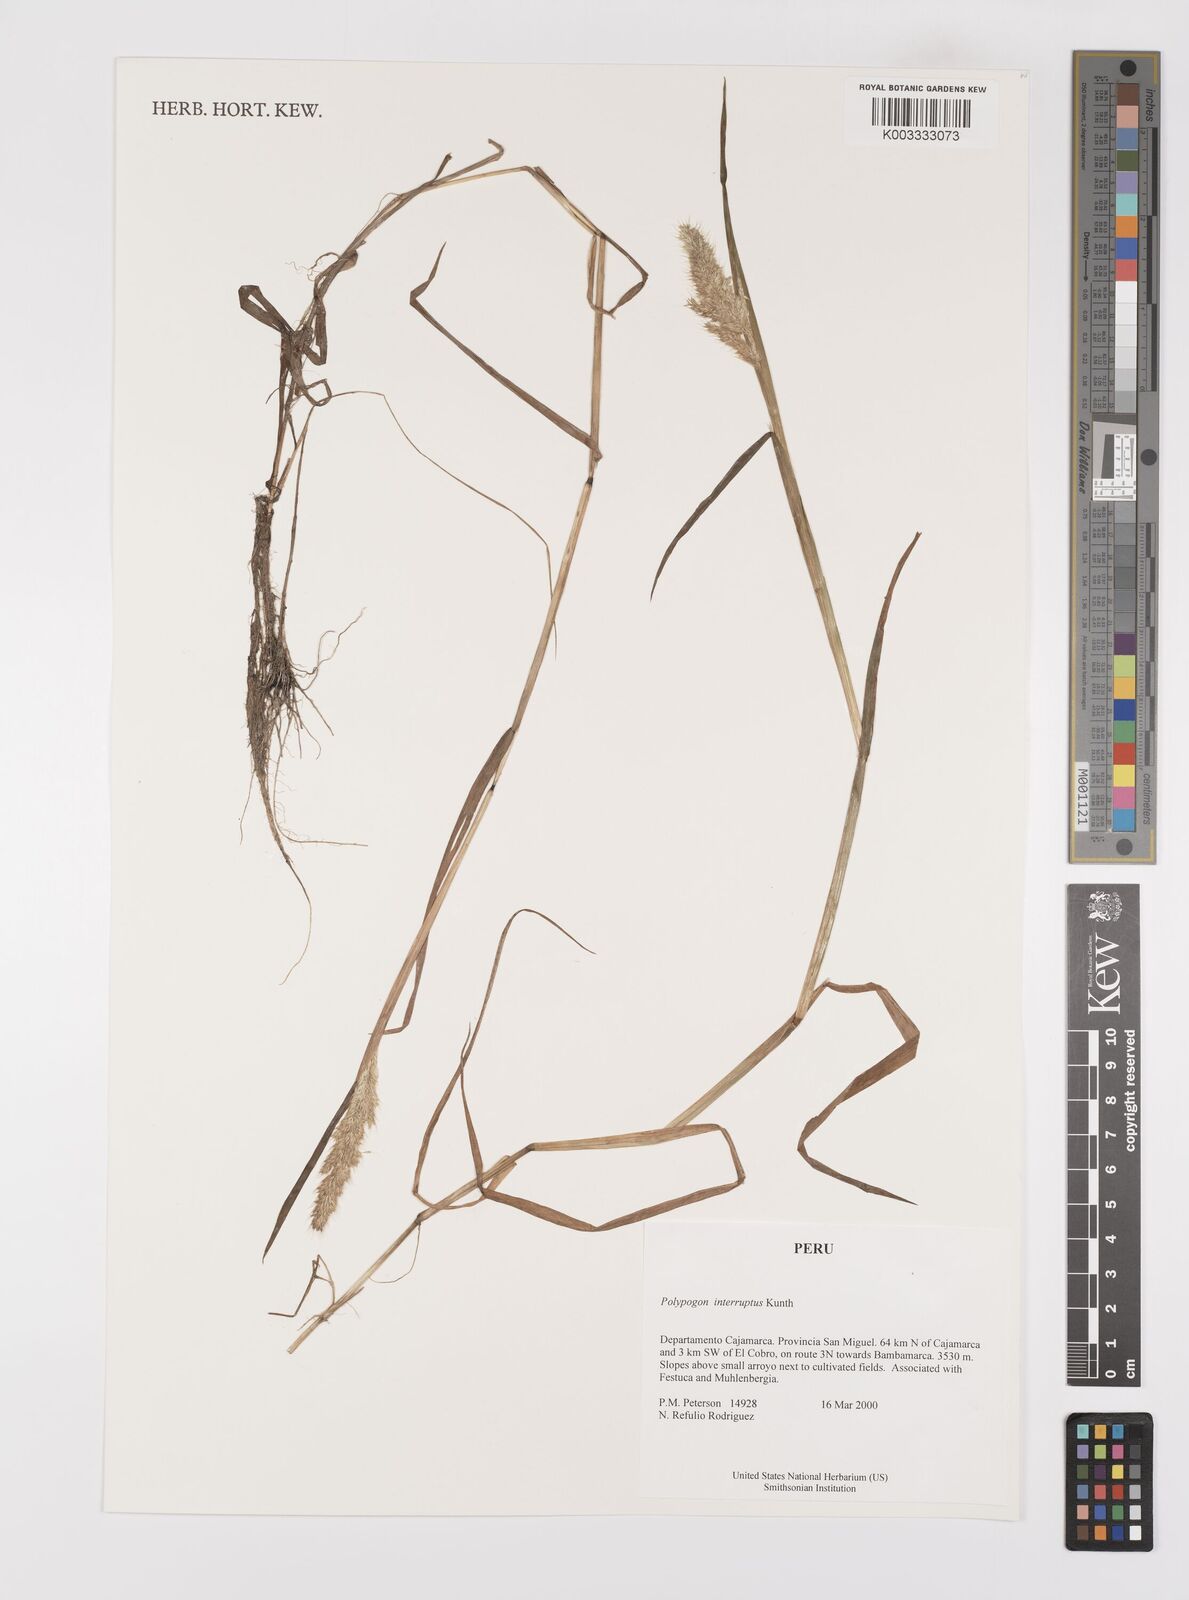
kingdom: Plantae
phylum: Tracheophyta
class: Liliopsida
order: Poales
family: Poaceae
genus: Polypogon
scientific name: Polypogon interruptus
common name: Ditch polypogon
